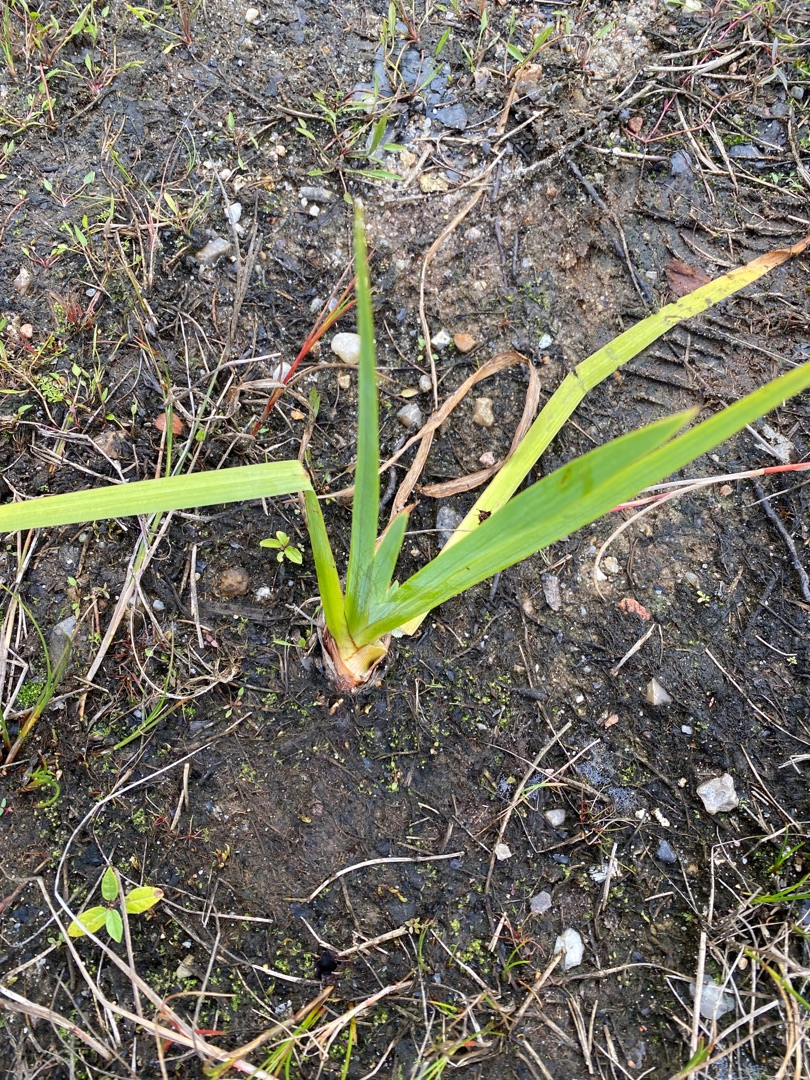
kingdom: Plantae
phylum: Tracheophyta
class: Liliopsida
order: Asparagales
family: Iridaceae
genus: Iris
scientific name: Iris pseudacorus
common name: Gul iris
